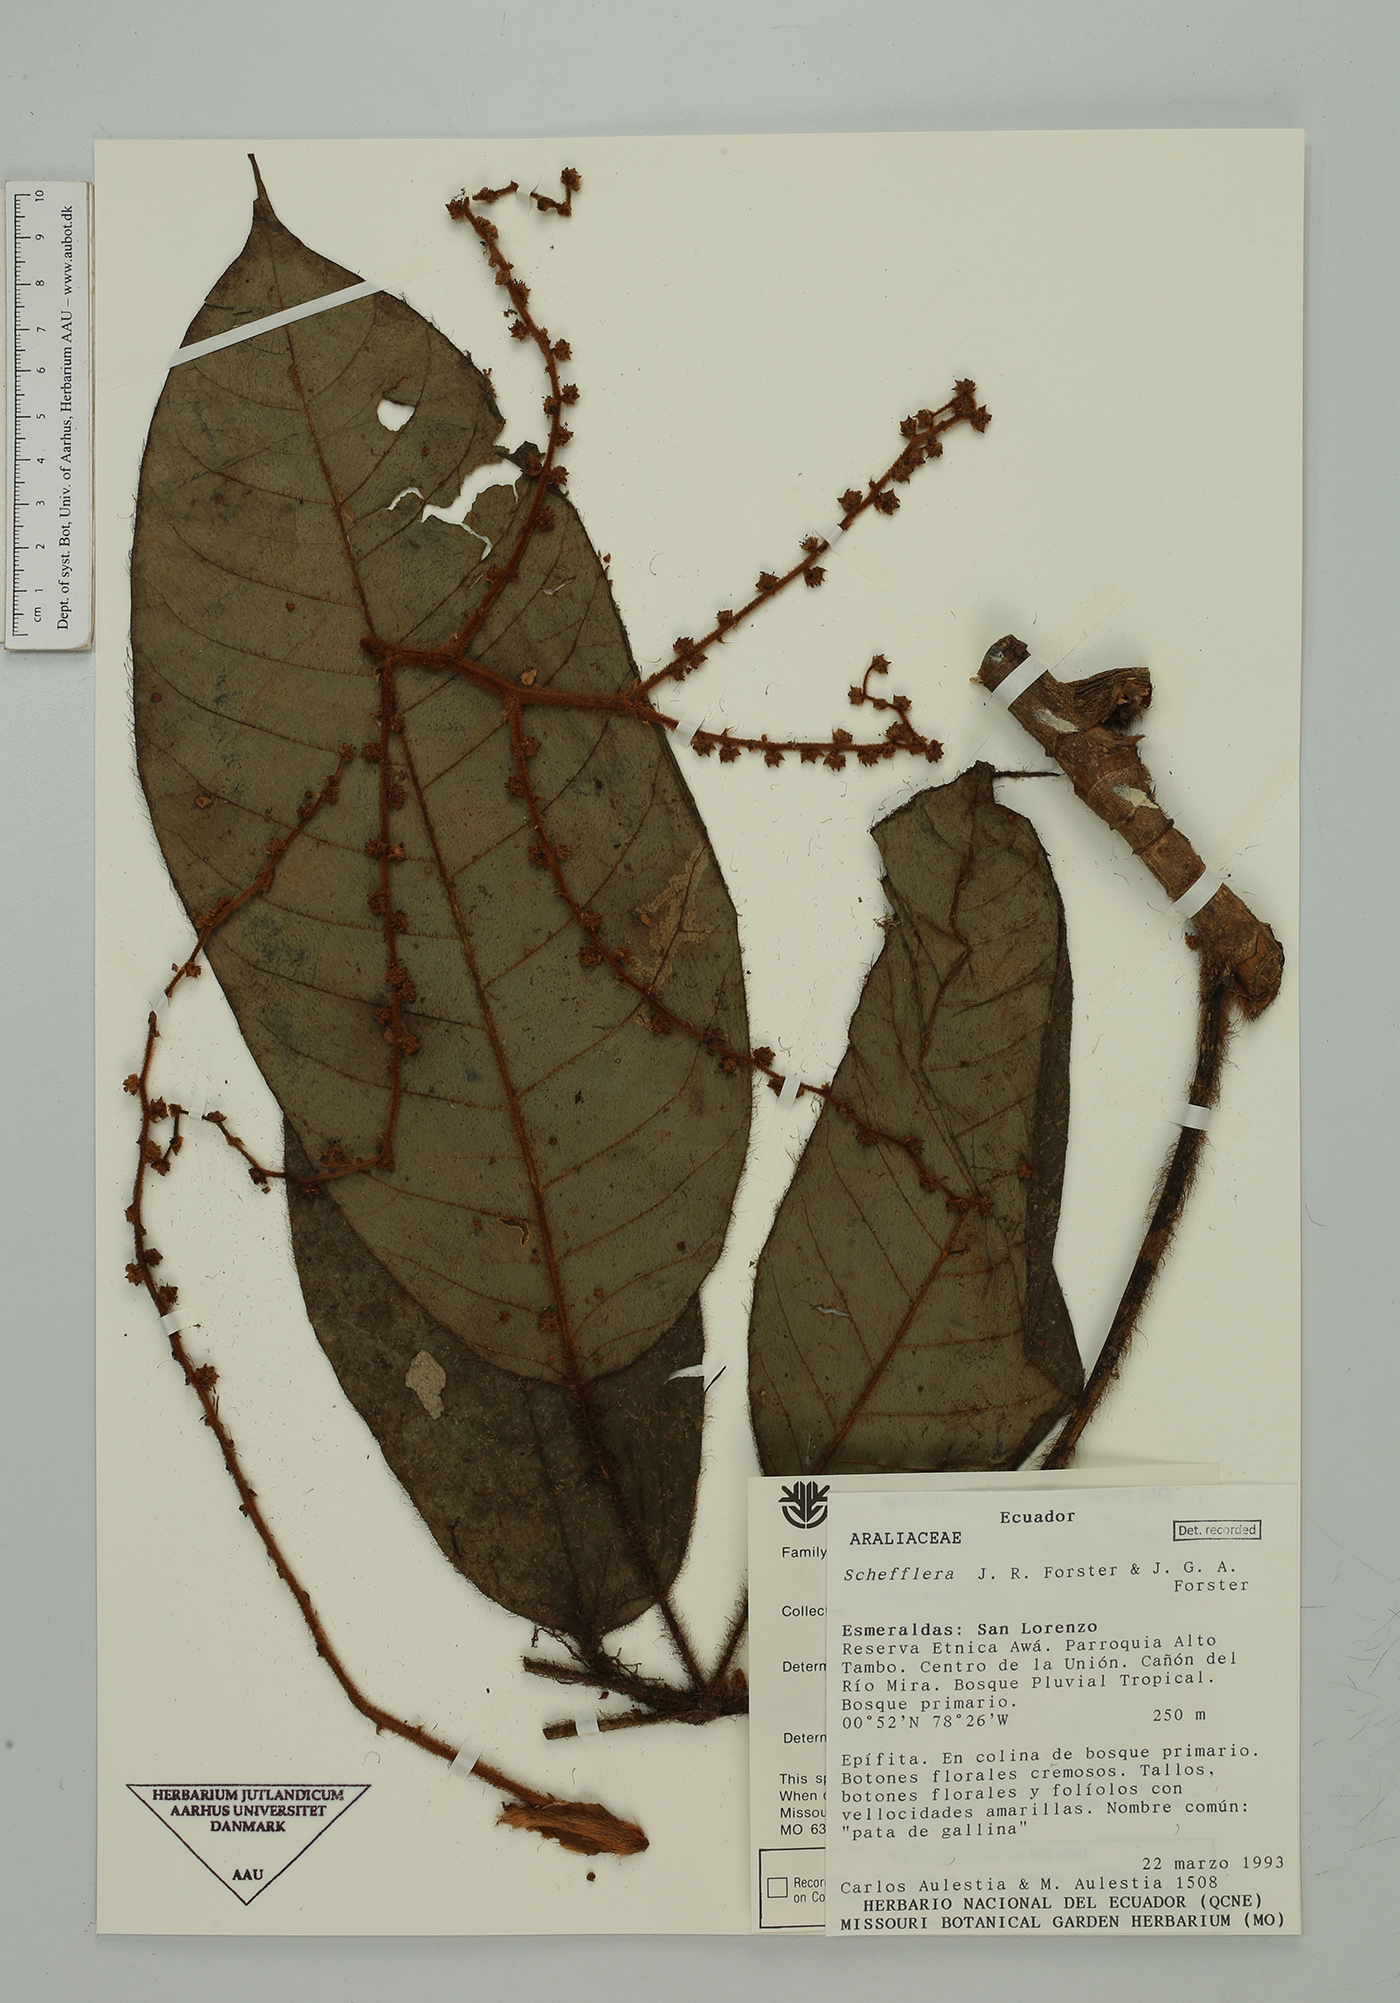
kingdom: Plantae
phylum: Tracheophyta
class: Magnoliopsida
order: Apiales
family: Araliaceae
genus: Sciodaphyllum
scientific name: Sciodaphyllum pentadactylum
